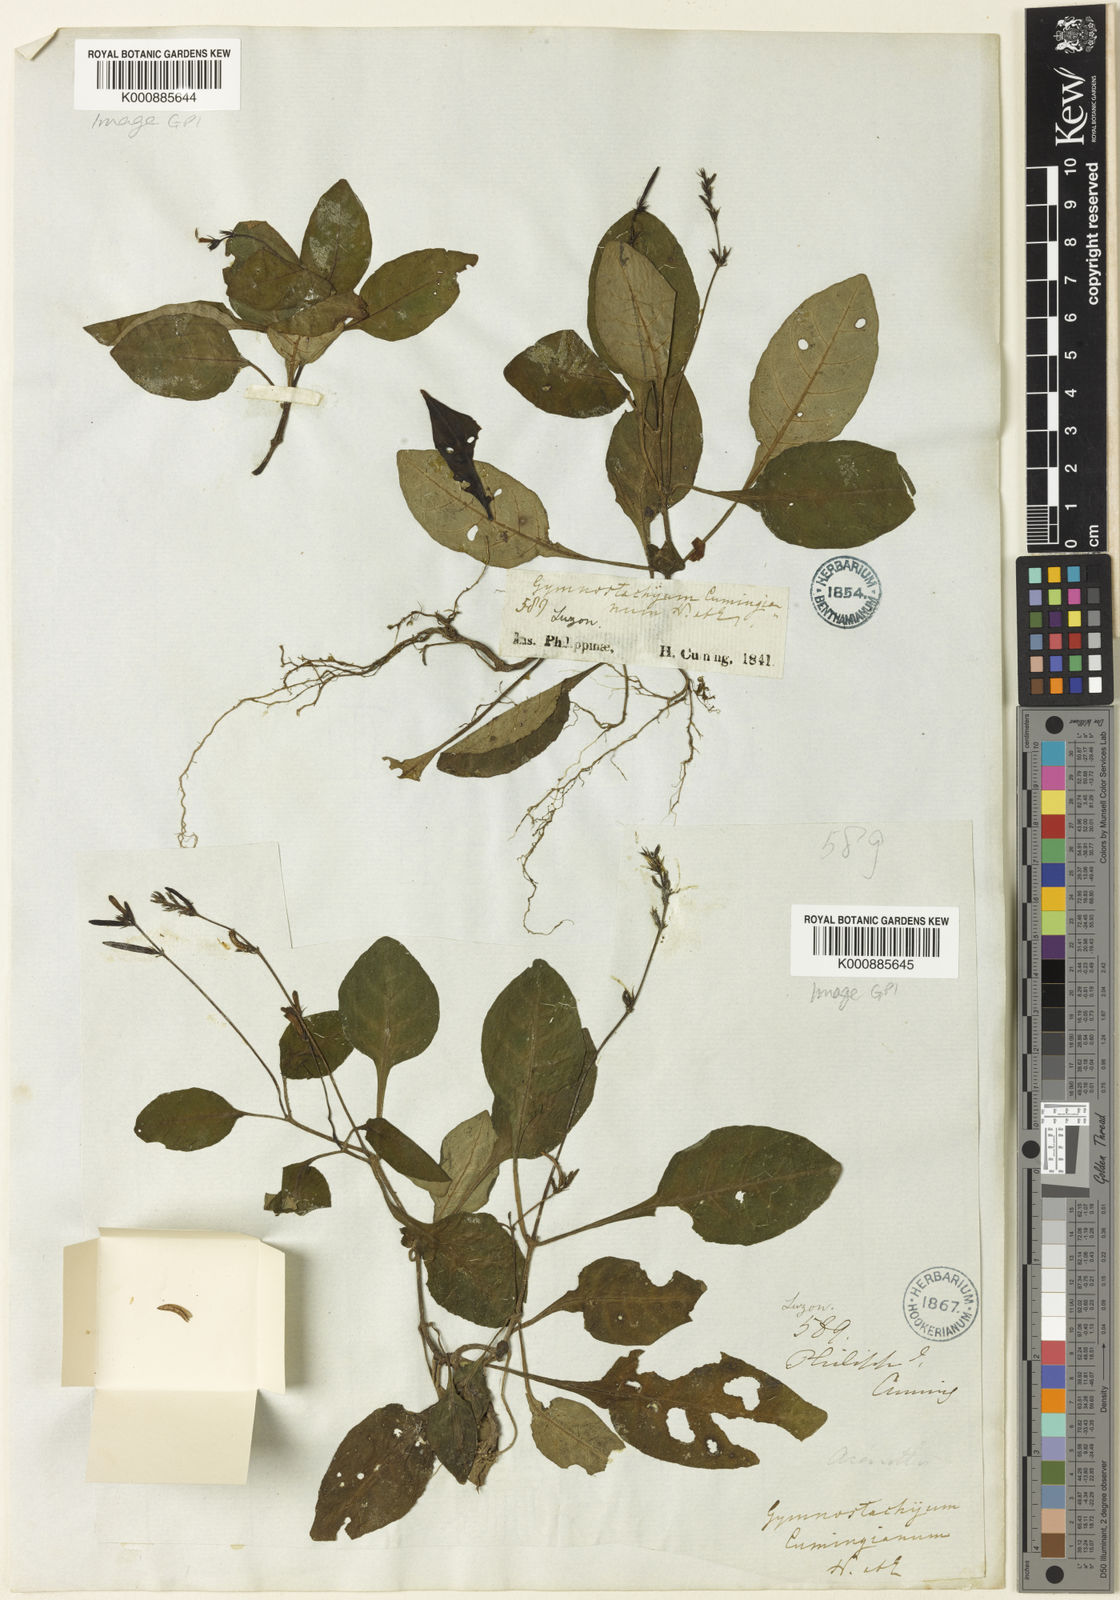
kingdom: Plantae
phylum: Tracheophyta
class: Magnoliopsida
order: Lamiales
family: Acanthaceae
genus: Gymnostachyum
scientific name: Gymnostachyum cumingianum
